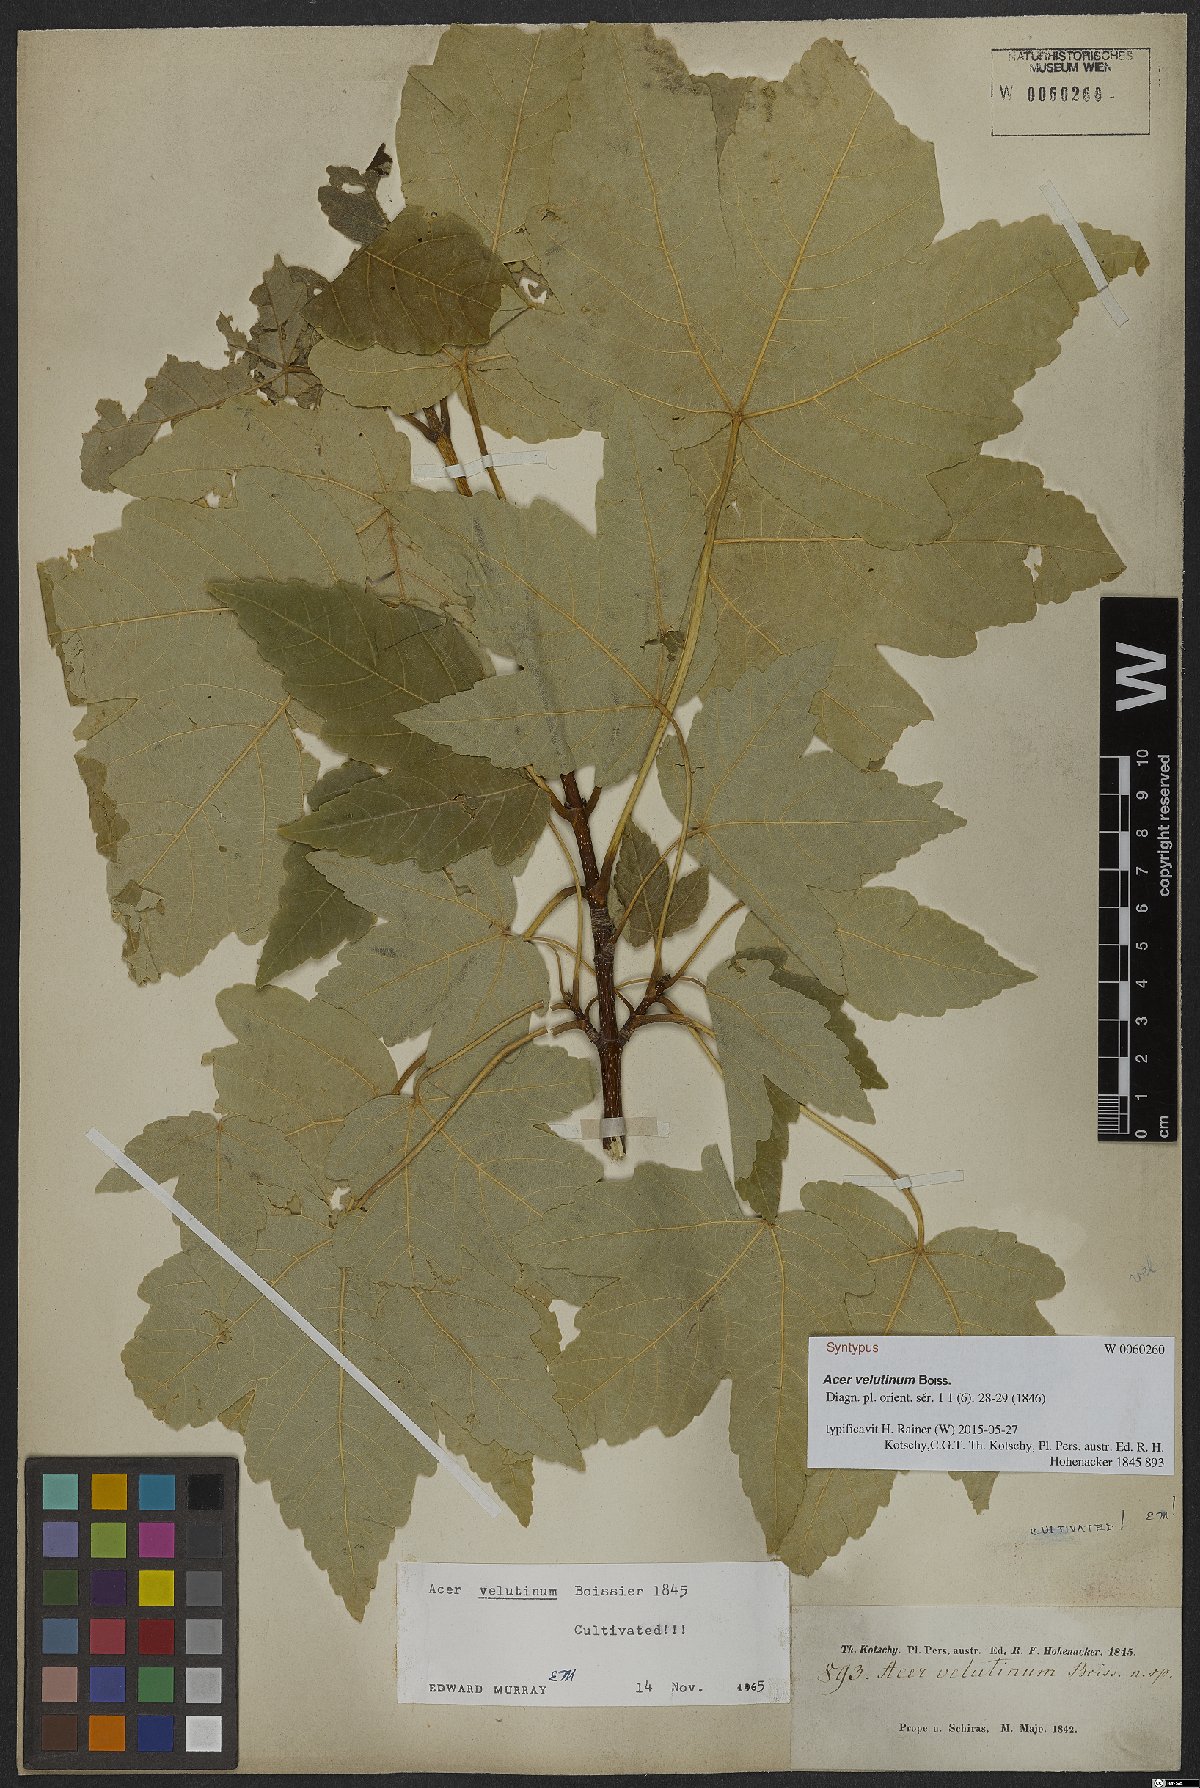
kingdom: Plantae
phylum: Tracheophyta
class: Magnoliopsida
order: Sapindales
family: Sapindaceae
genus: Acer
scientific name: Acer velutinum
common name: Velvet maple
